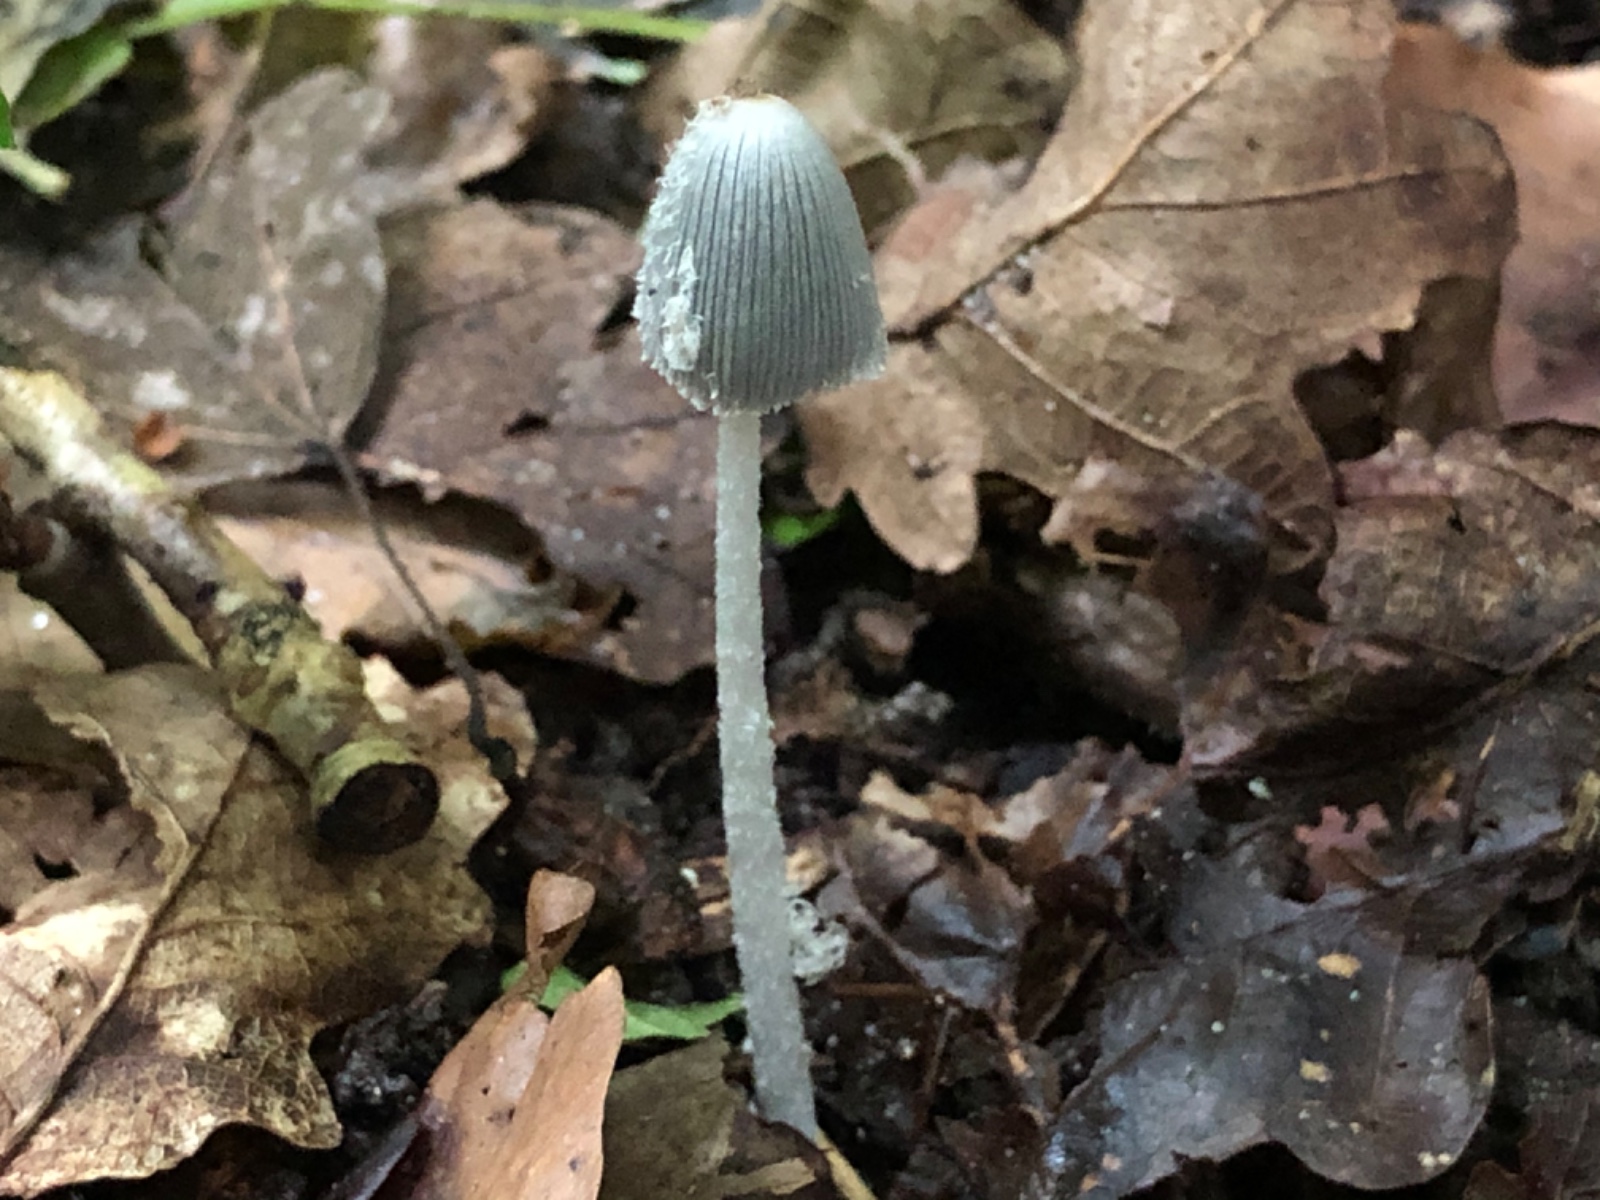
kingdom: Fungi
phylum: Basidiomycota
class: Agaricomycetes
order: Agaricales
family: Psathyrellaceae
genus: Coprinopsis
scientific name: Coprinopsis lagopus
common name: dunstokket blækhat
